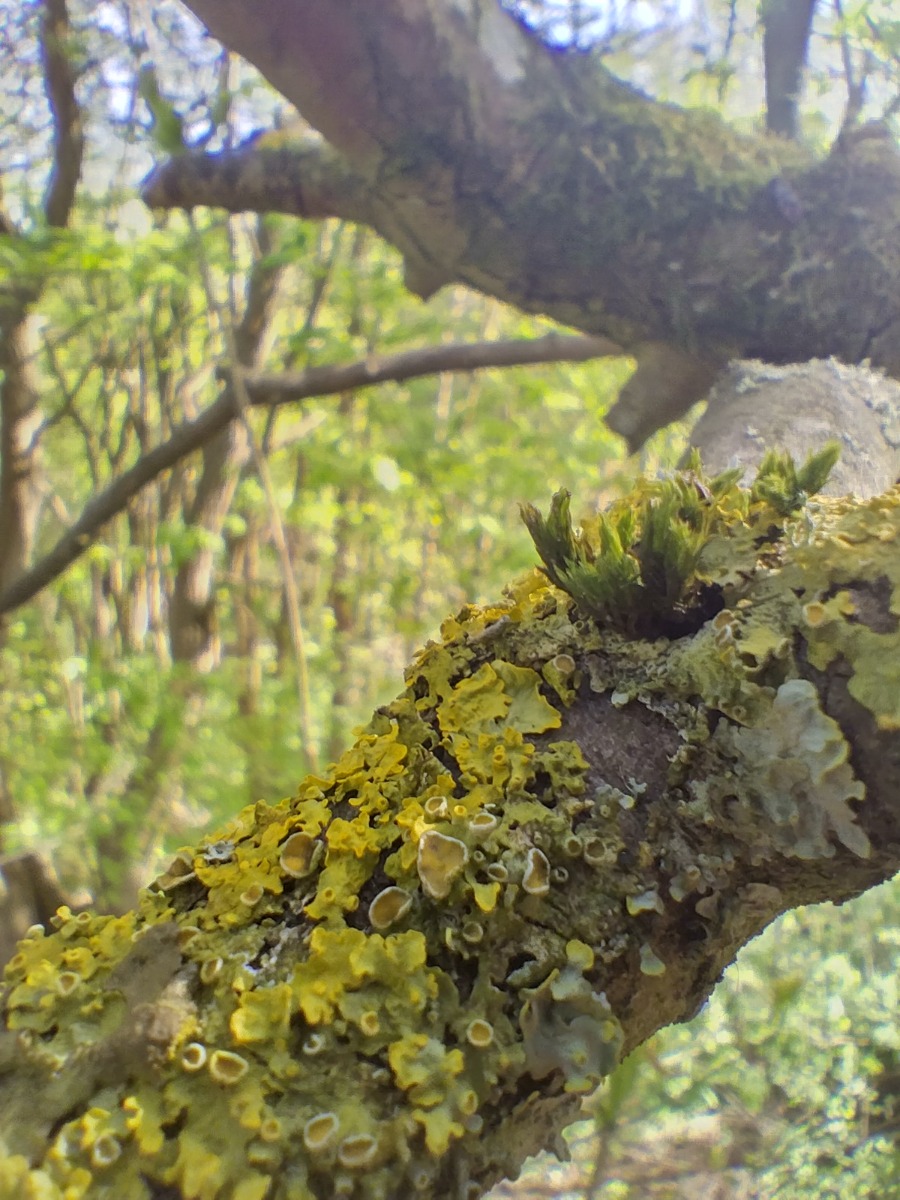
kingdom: Fungi
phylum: Ascomycota
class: Lecanoromycetes
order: Teloschistales
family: Teloschistaceae
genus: Xanthoria
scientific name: Xanthoria parietina
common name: Almindelig væggelav
